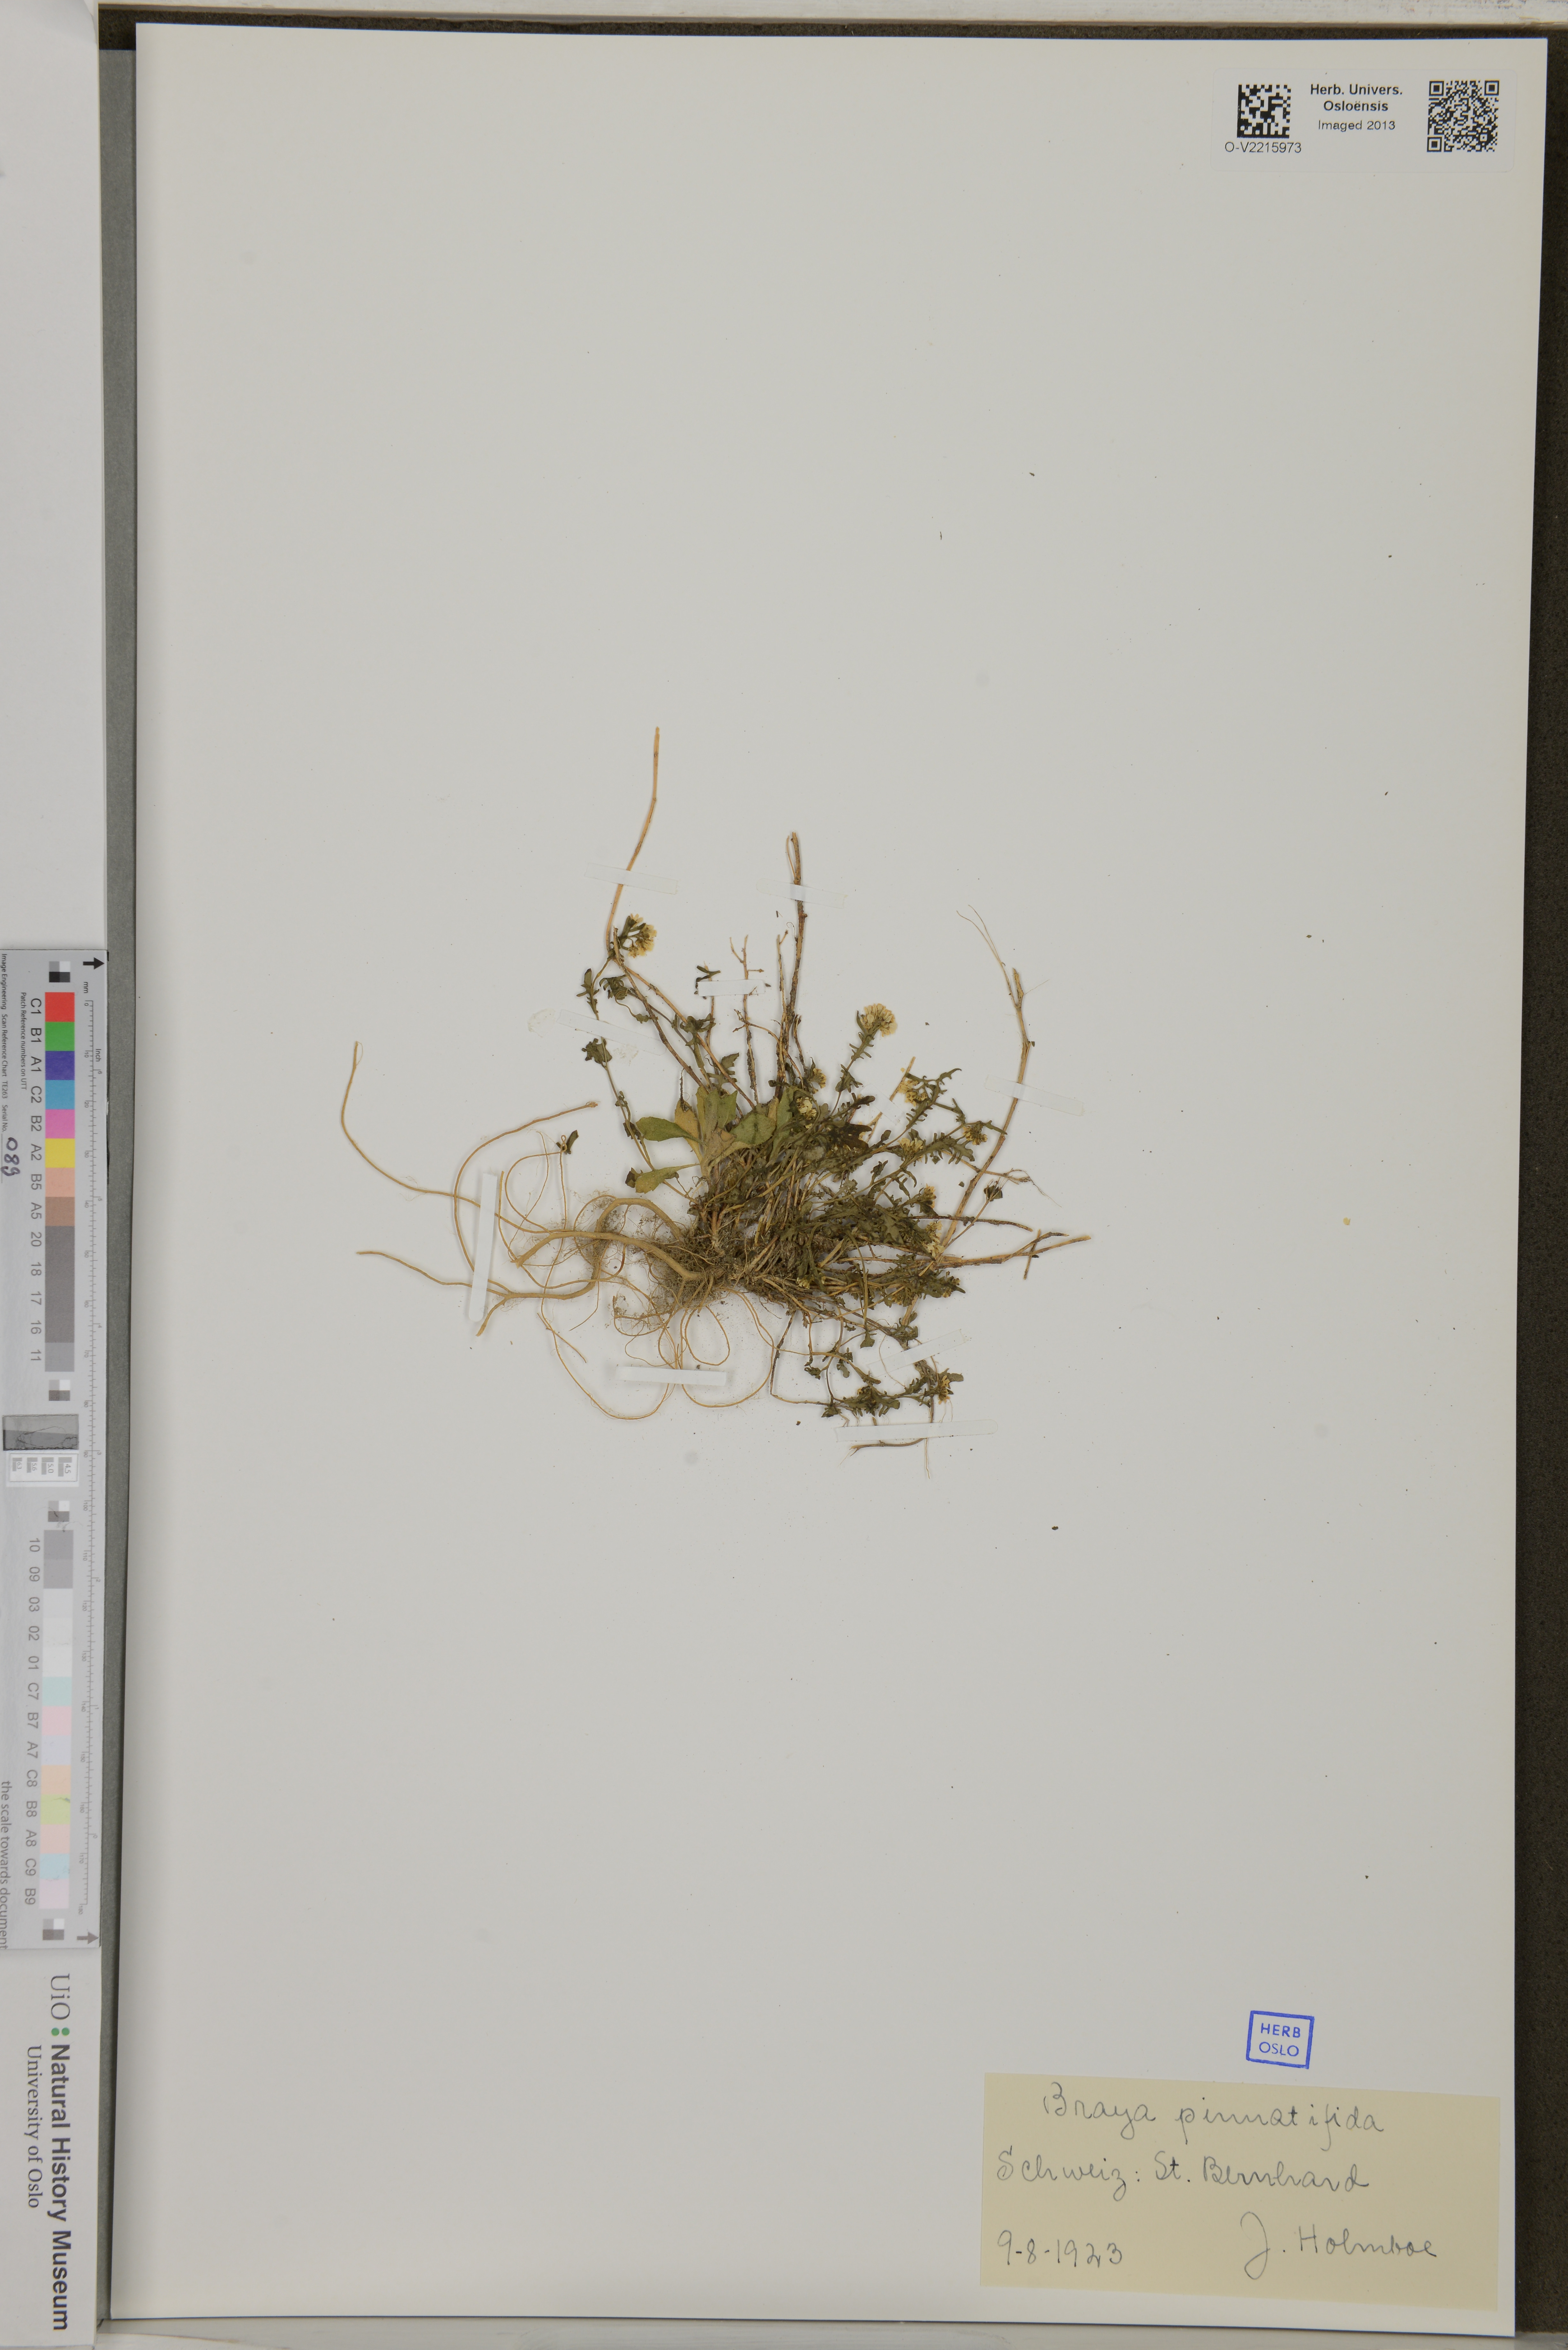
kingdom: Plantae
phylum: Tracheophyta
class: Magnoliopsida
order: Brassicales
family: Brassicaceae
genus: Murbeckiella
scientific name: Murbeckiella pinnatifida
